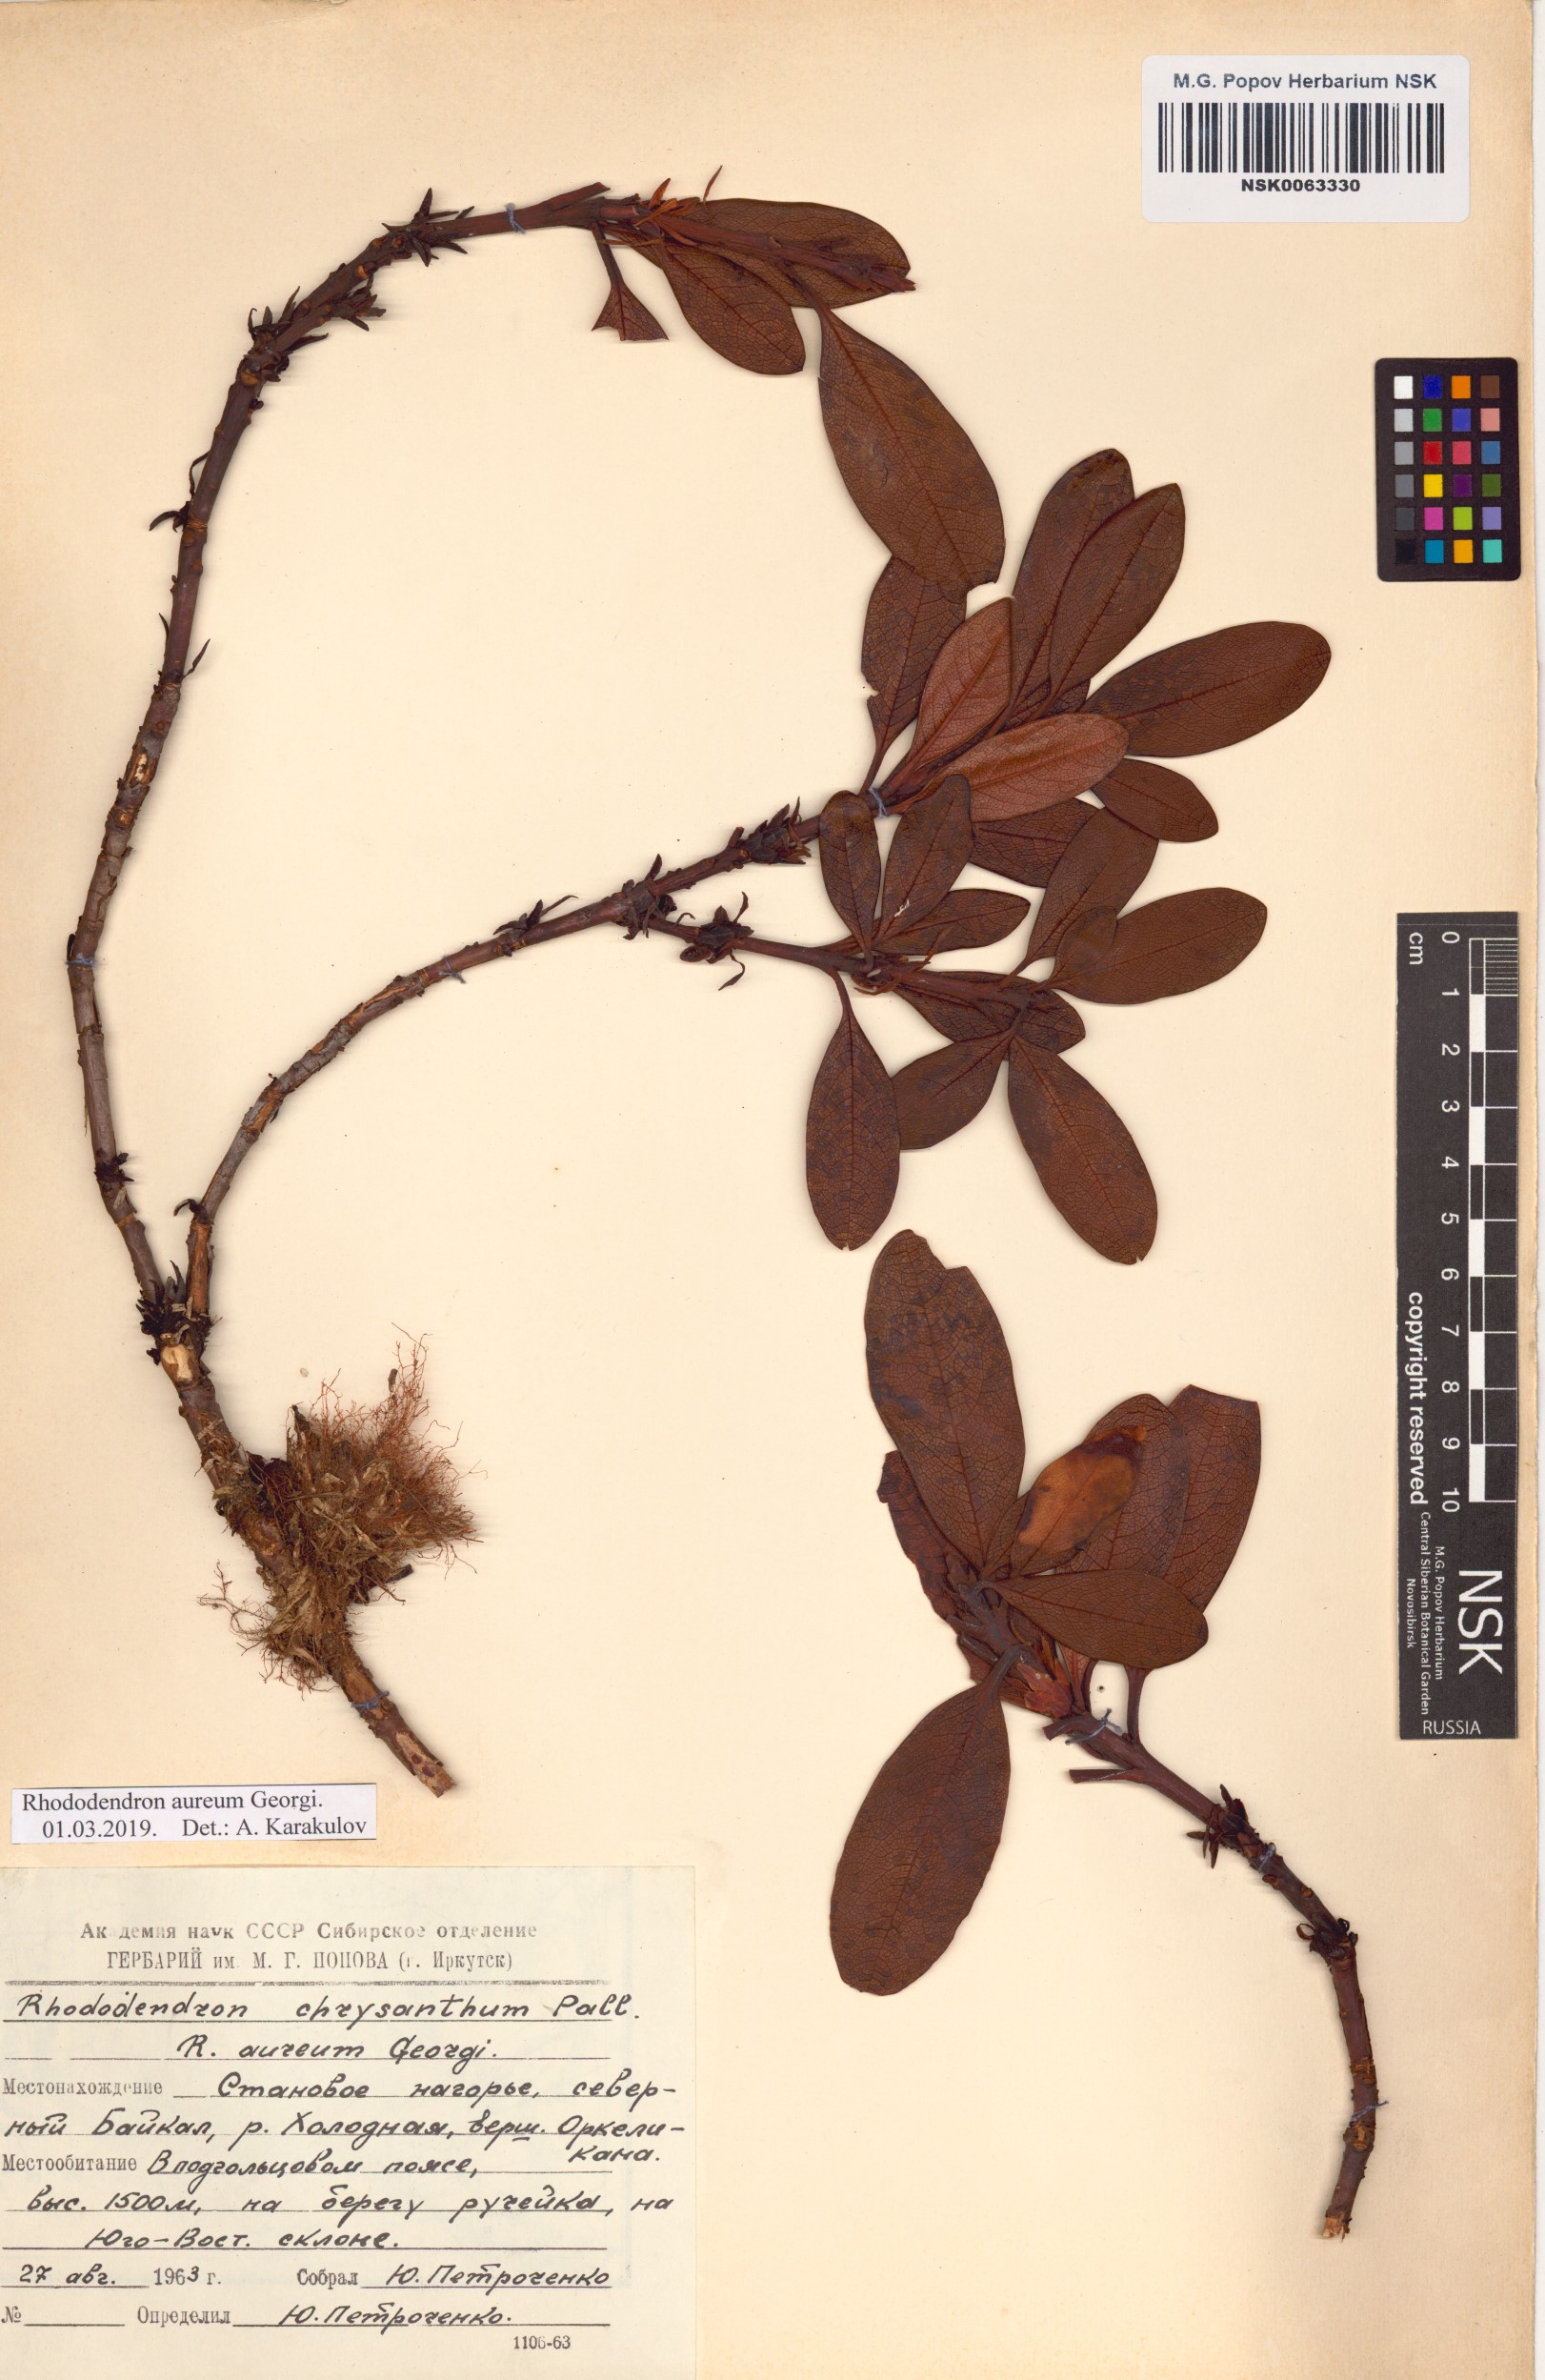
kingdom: Plantae
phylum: Tracheophyta
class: Magnoliopsida
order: Ericales
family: Ericaceae
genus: Rhododendron
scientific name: Rhododendron aureum
